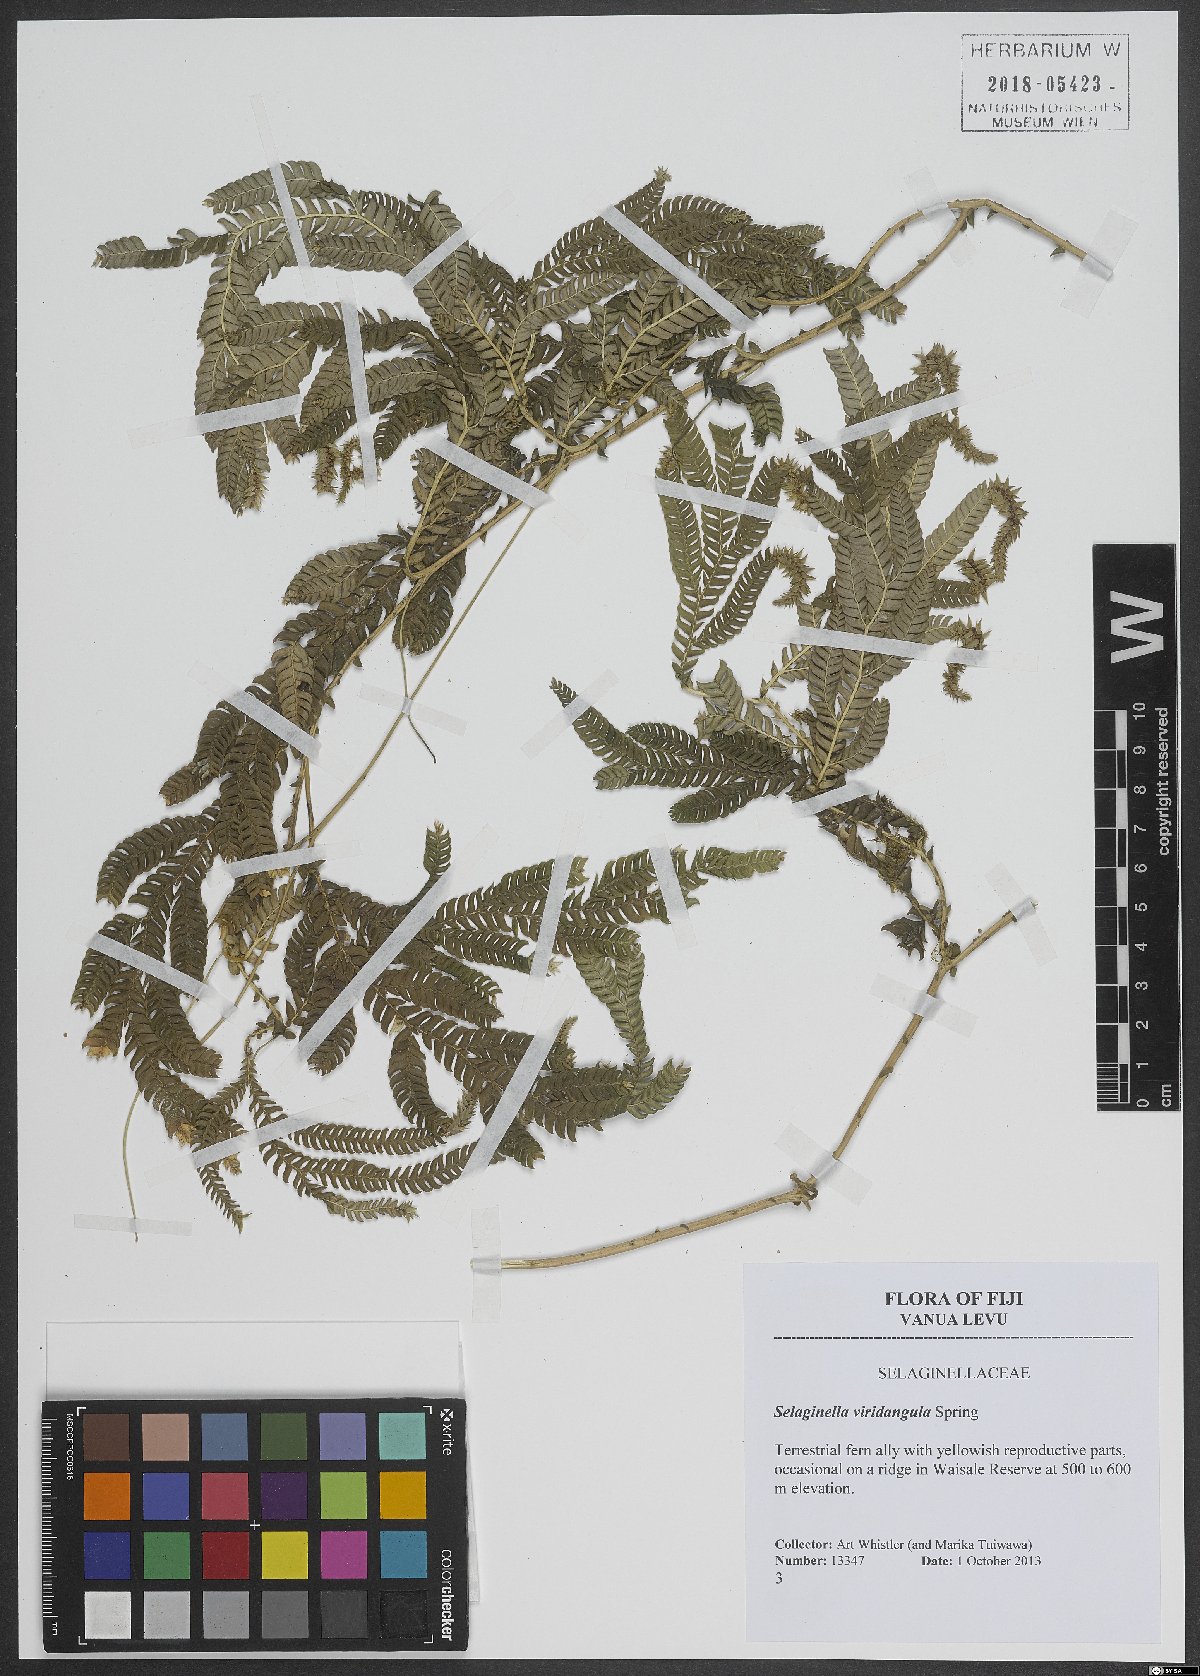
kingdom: Plantae
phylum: Tracheophyta
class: Lycopodiopsida
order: Selaginellales
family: Selaginellaceae
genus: Selaginella
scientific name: Selaginella viridangula
